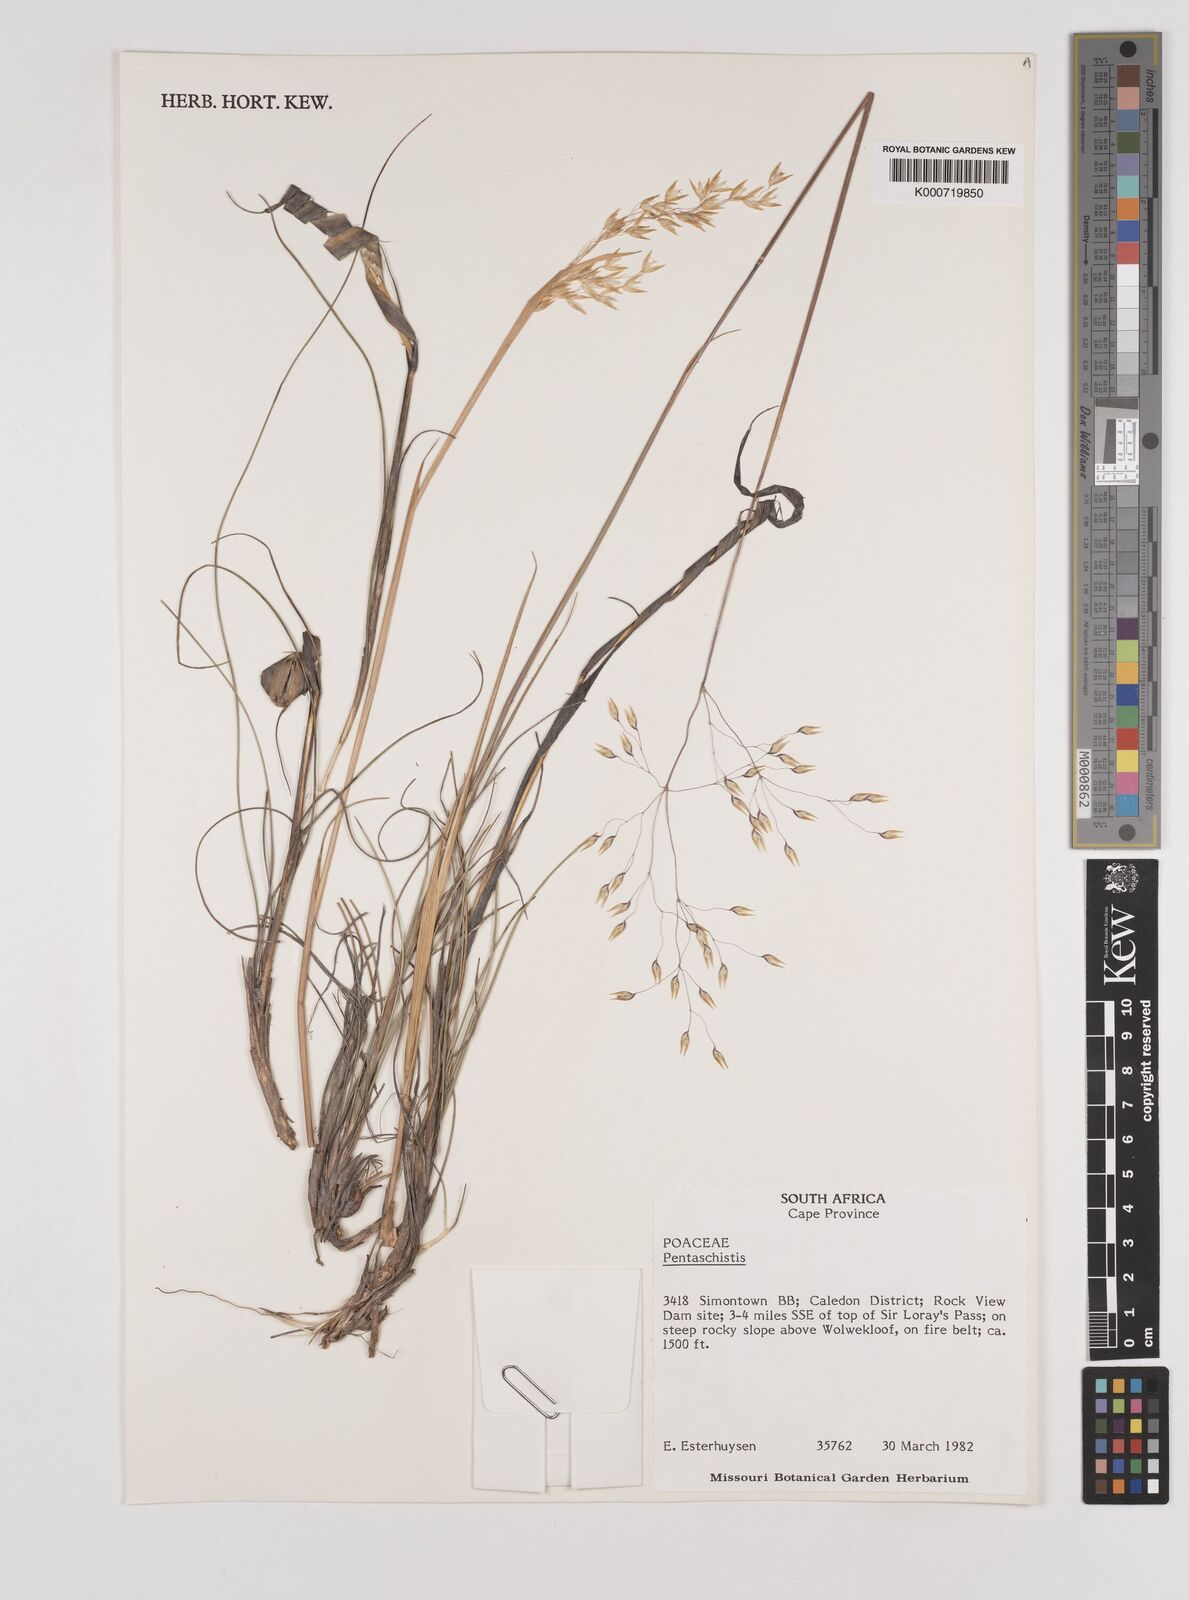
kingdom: Plantae
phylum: Tracheophyta
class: Liliopsida
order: Poales
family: Poaceae
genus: Pentaschistis
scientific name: Pentaschistis
